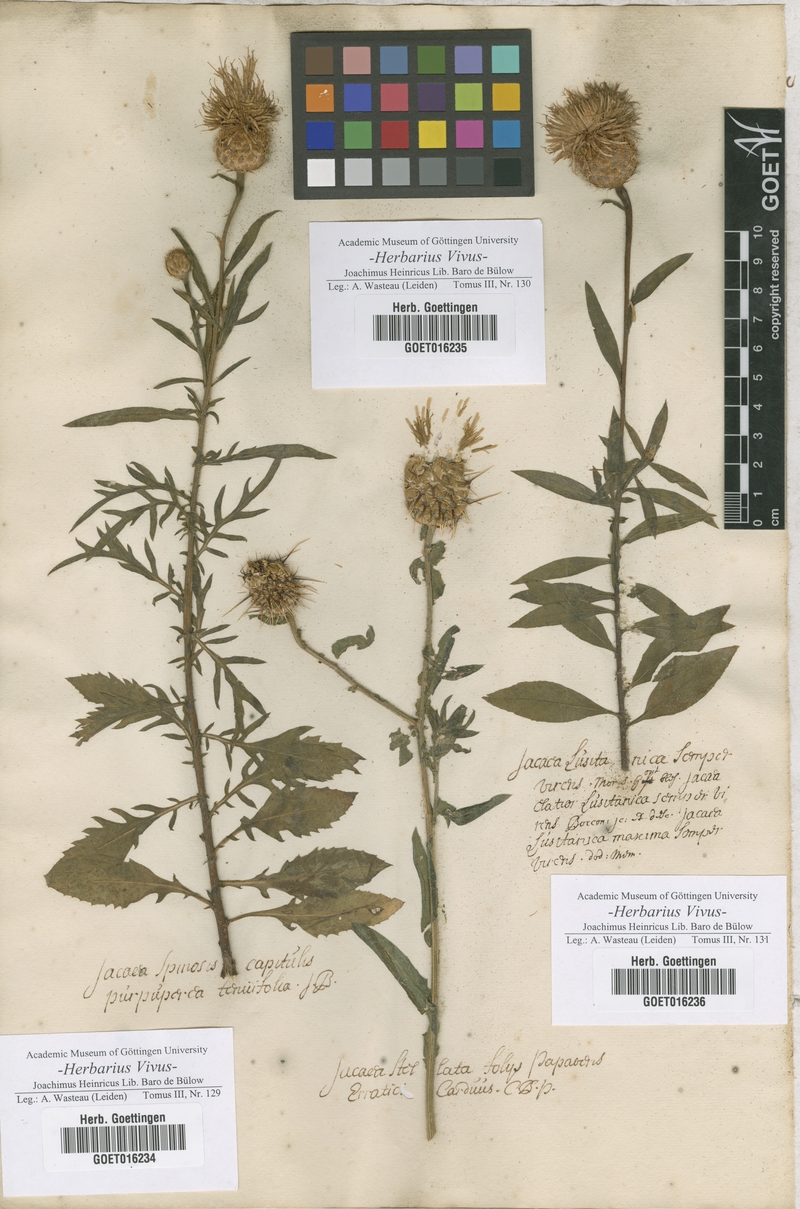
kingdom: Plantae
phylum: Tracheophyta
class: Magnoliopsida
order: Asterales
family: Asteraceae
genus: Centaurea
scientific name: Centaurea aspera
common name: Rough star-thistle
